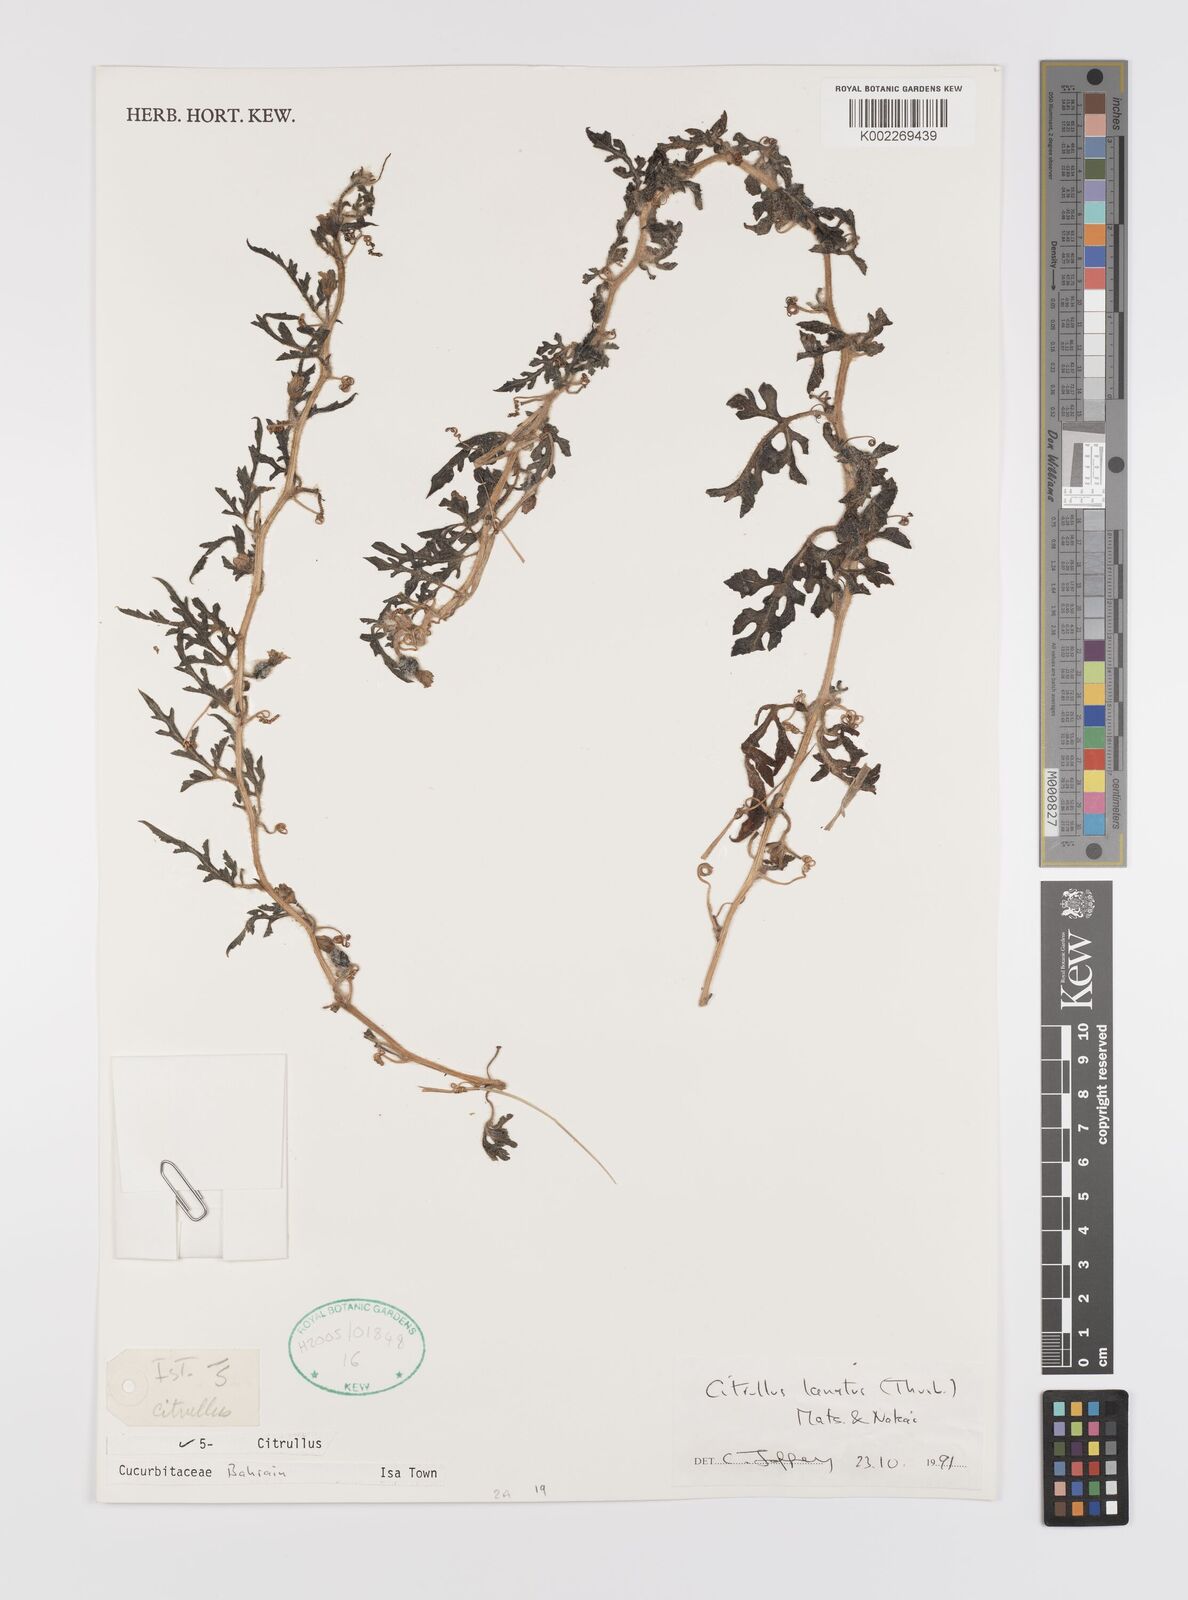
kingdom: Plantae
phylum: Tracheophyta
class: Magnoliopsida
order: Cucurbitales
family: Cucurbitaceae
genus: Citrullus
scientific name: Citrullus lanatus
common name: Watermelon
